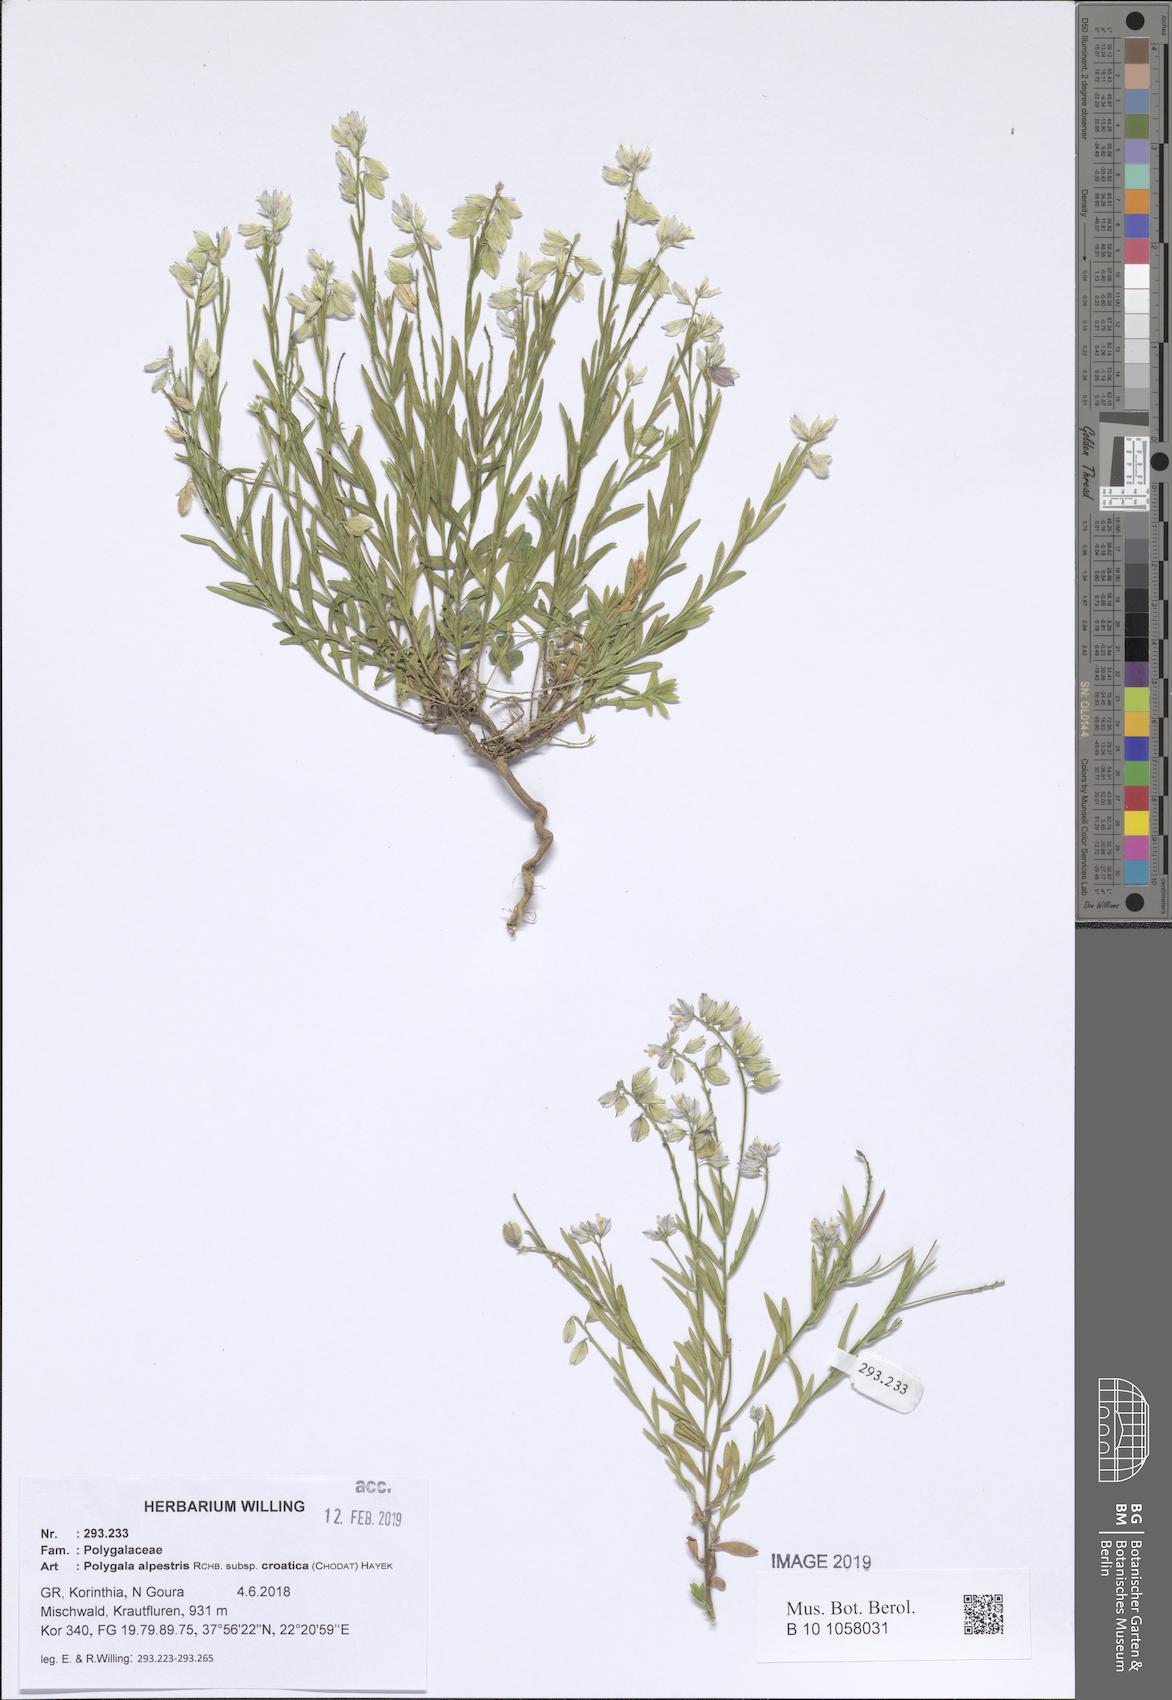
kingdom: Plantae
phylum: Tracheophyta
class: Magnoliopsida
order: Fabales
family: Polygalaceae
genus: Polygala
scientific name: Polygala alpestris
